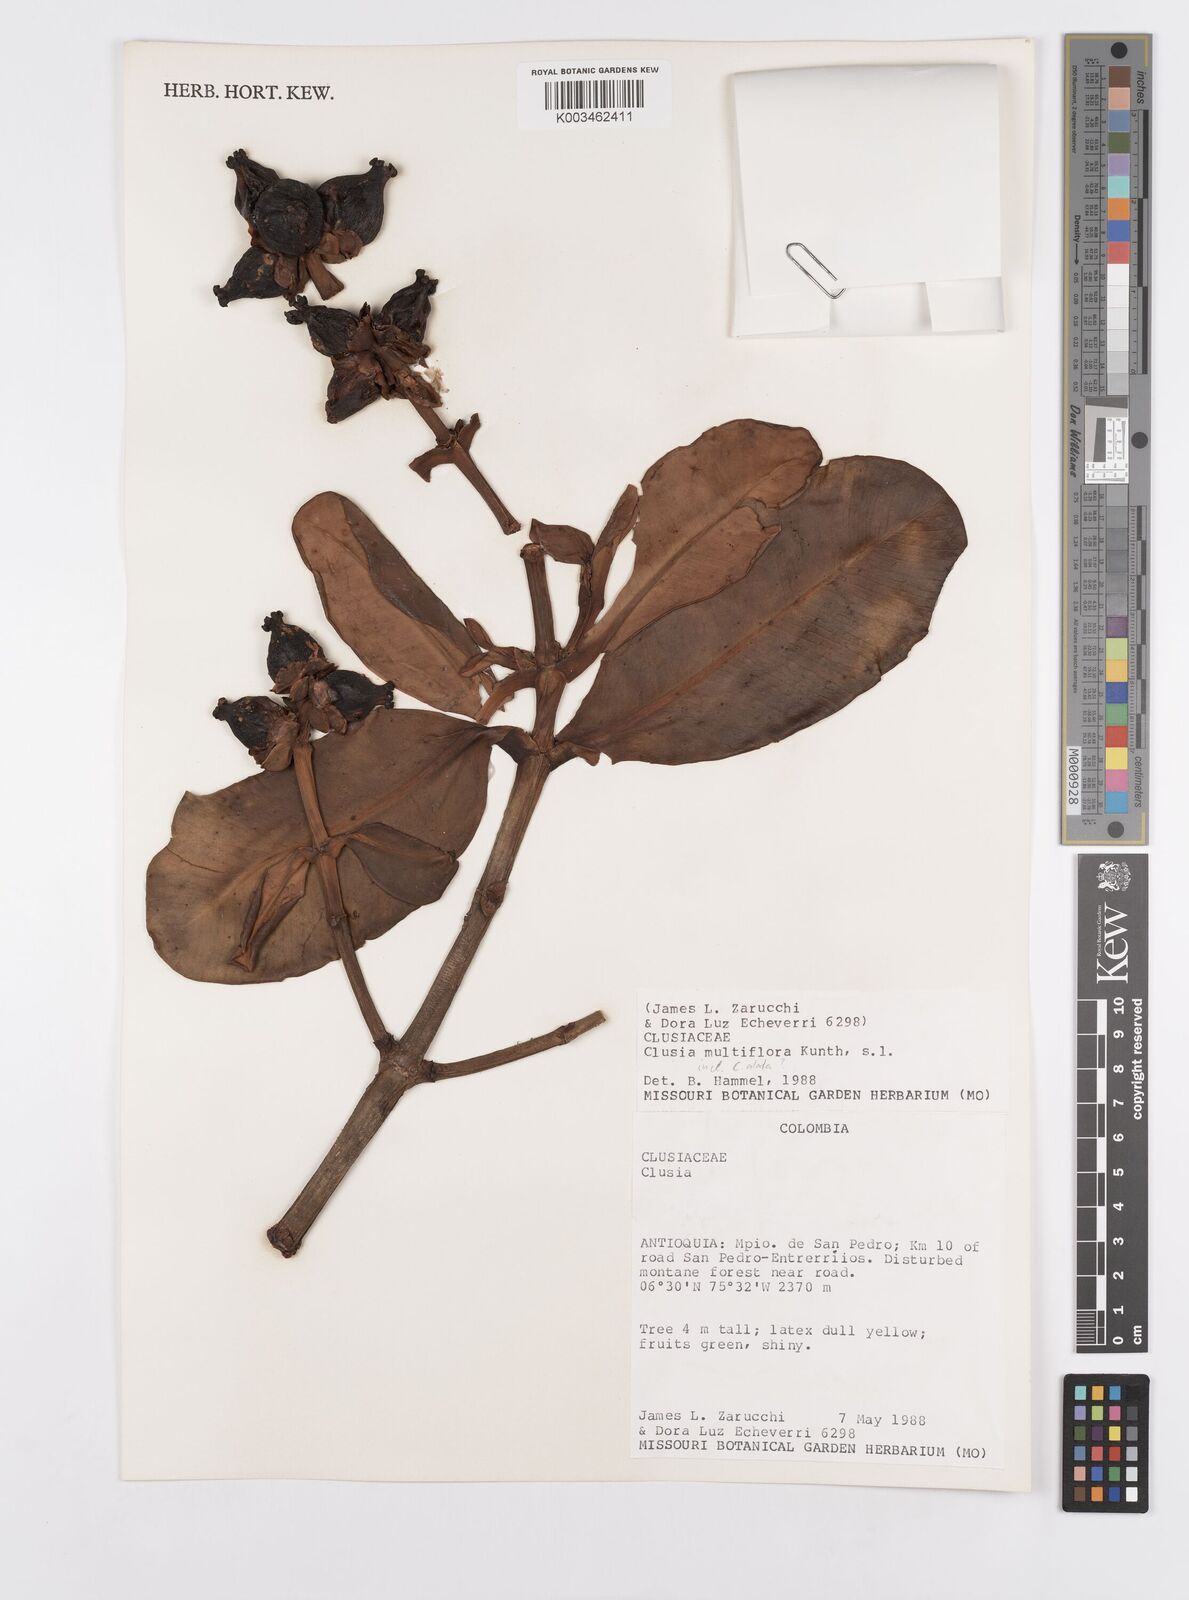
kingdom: Plantae
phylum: Tracheophyta
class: Magnoliopsida
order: Malpighiales
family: Clusiaceae
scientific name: Clusiaceae
